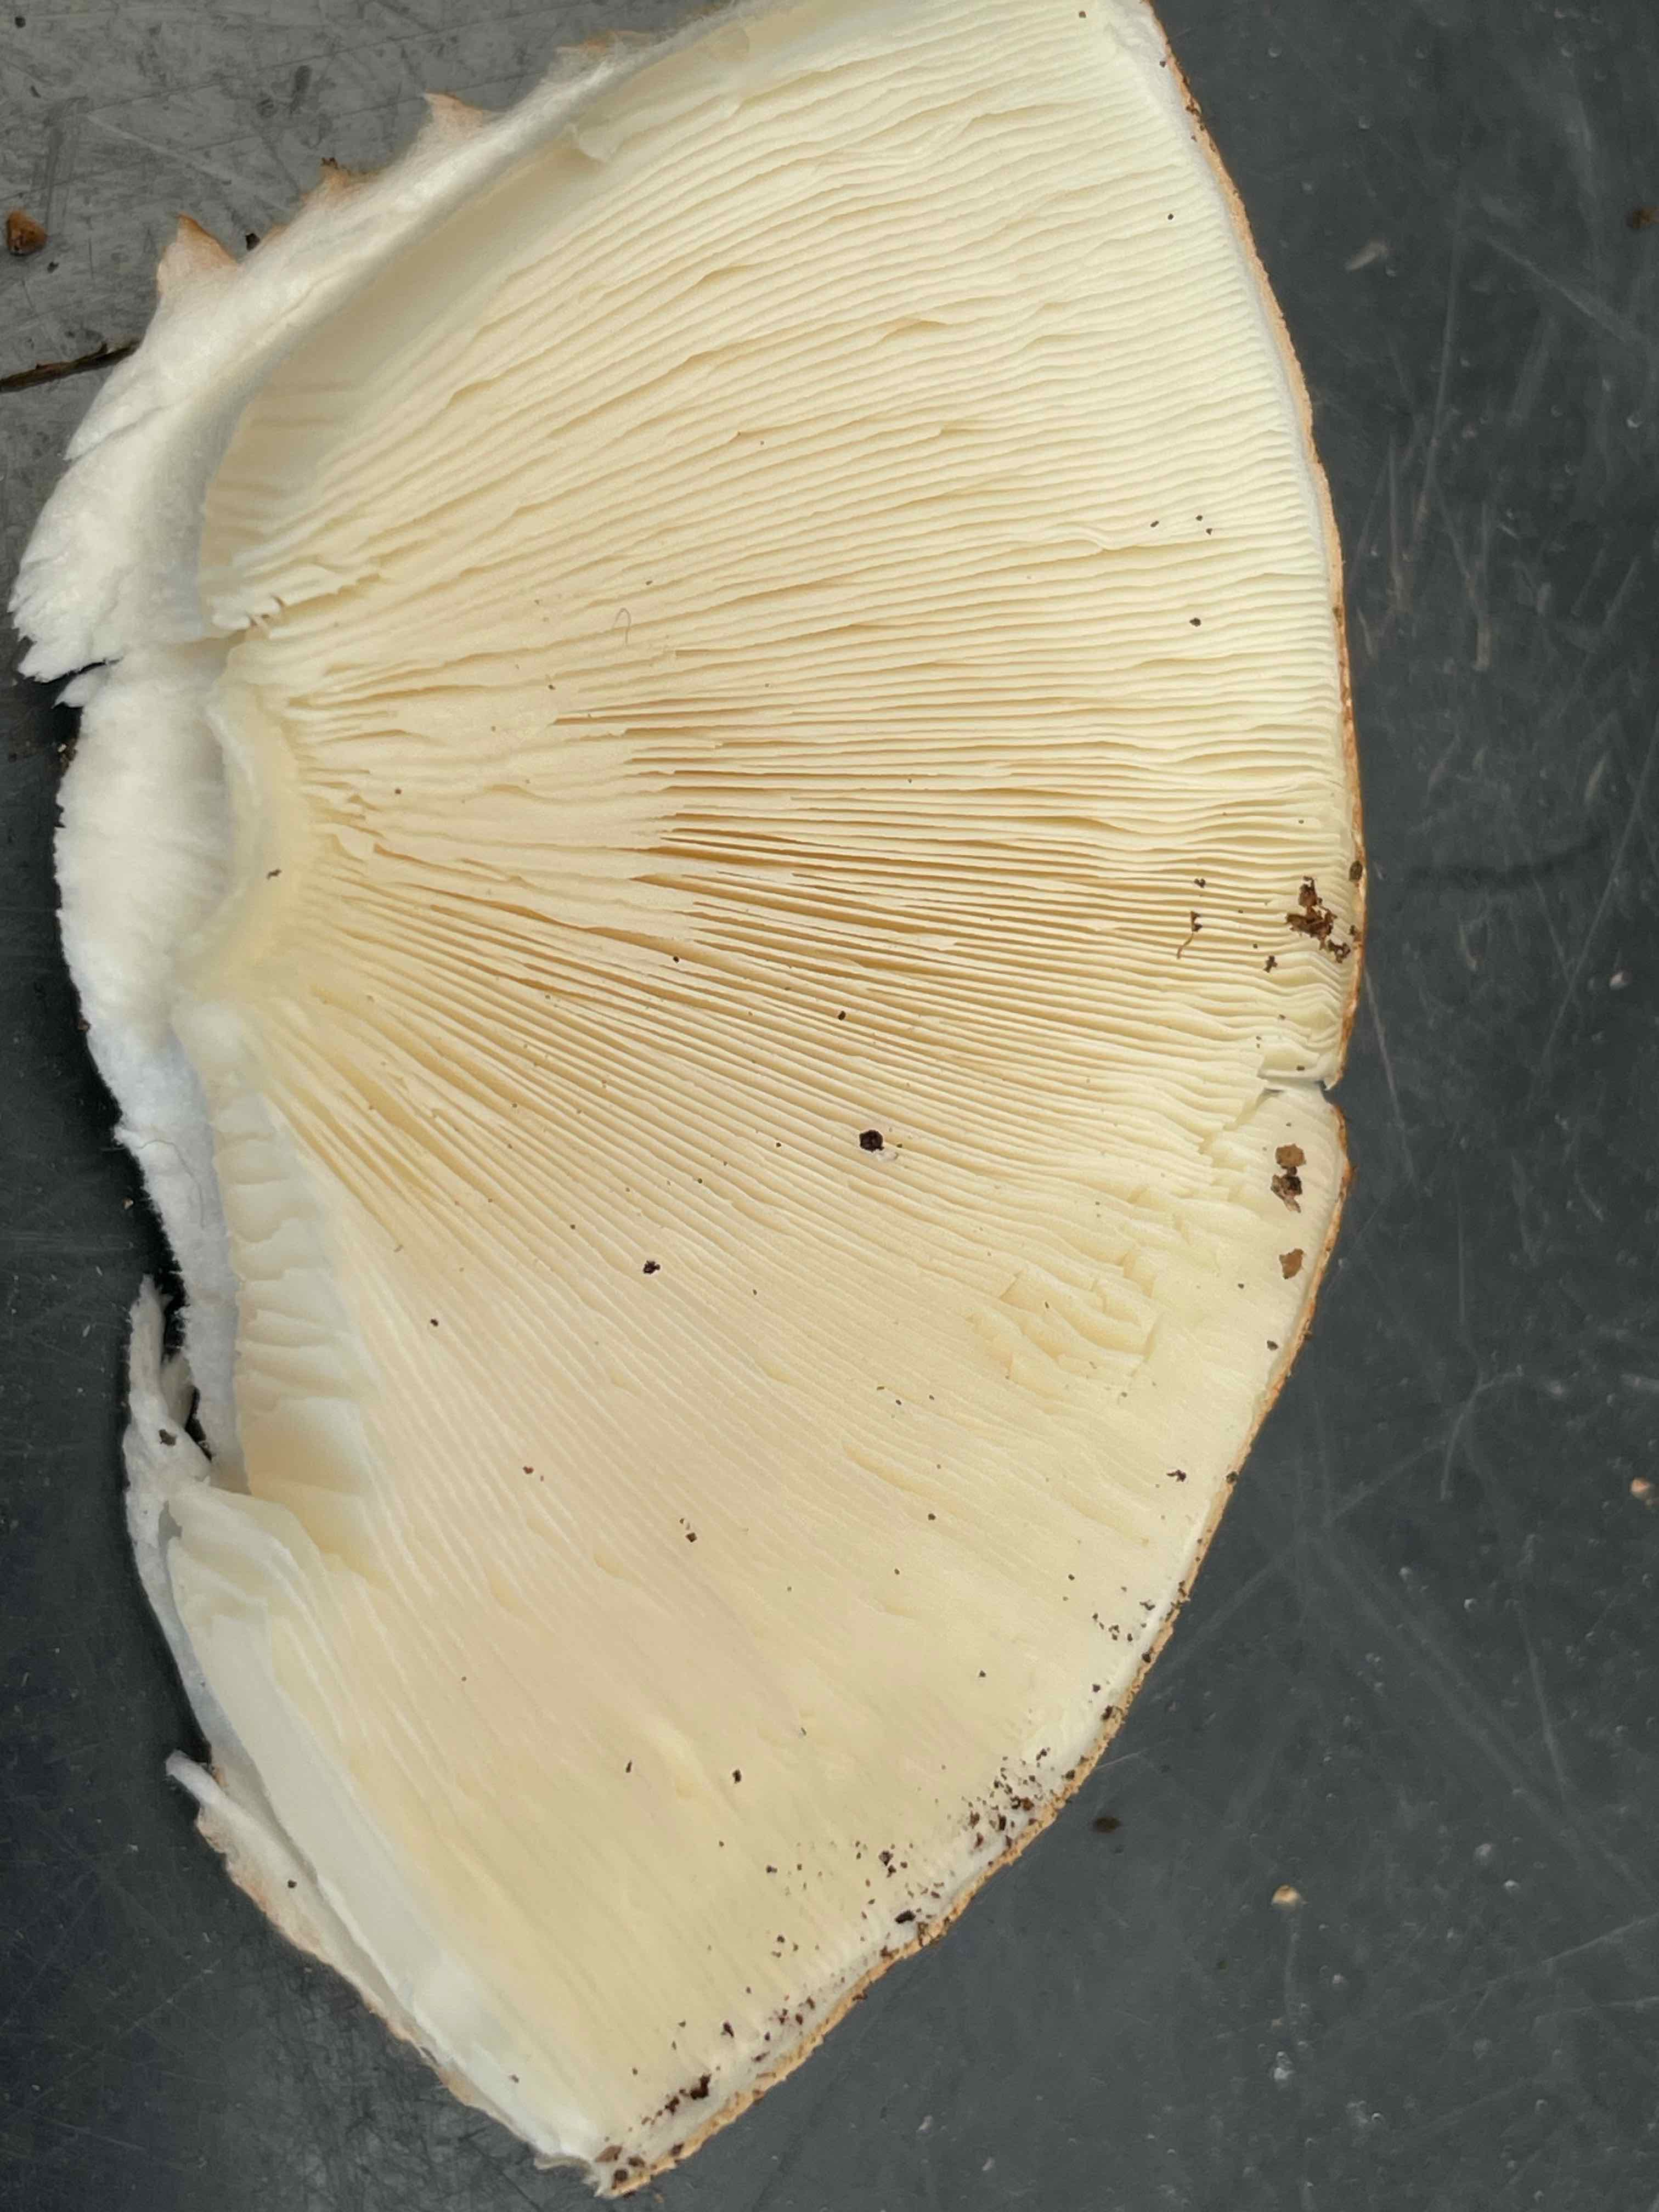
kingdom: Fungi
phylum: Basidiomycota
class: Agaricomycetes
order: Agaricales
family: Agaricaceae
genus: Echinoderma
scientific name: Echinoderma asperum
